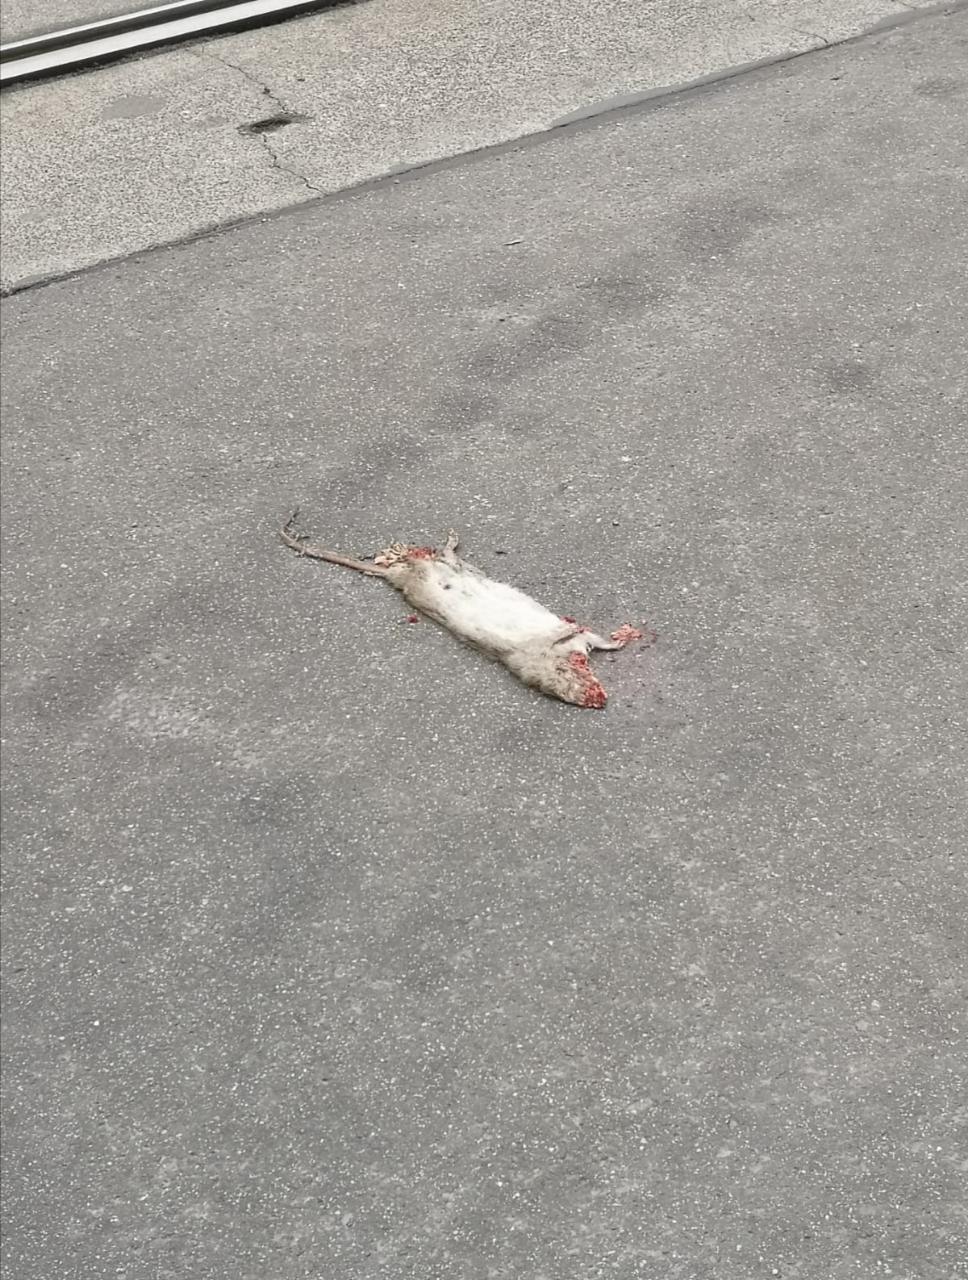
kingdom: Animalia
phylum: Chordata
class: Mammalia
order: Rodentia
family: Muridae
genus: Rattus
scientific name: Rattus
